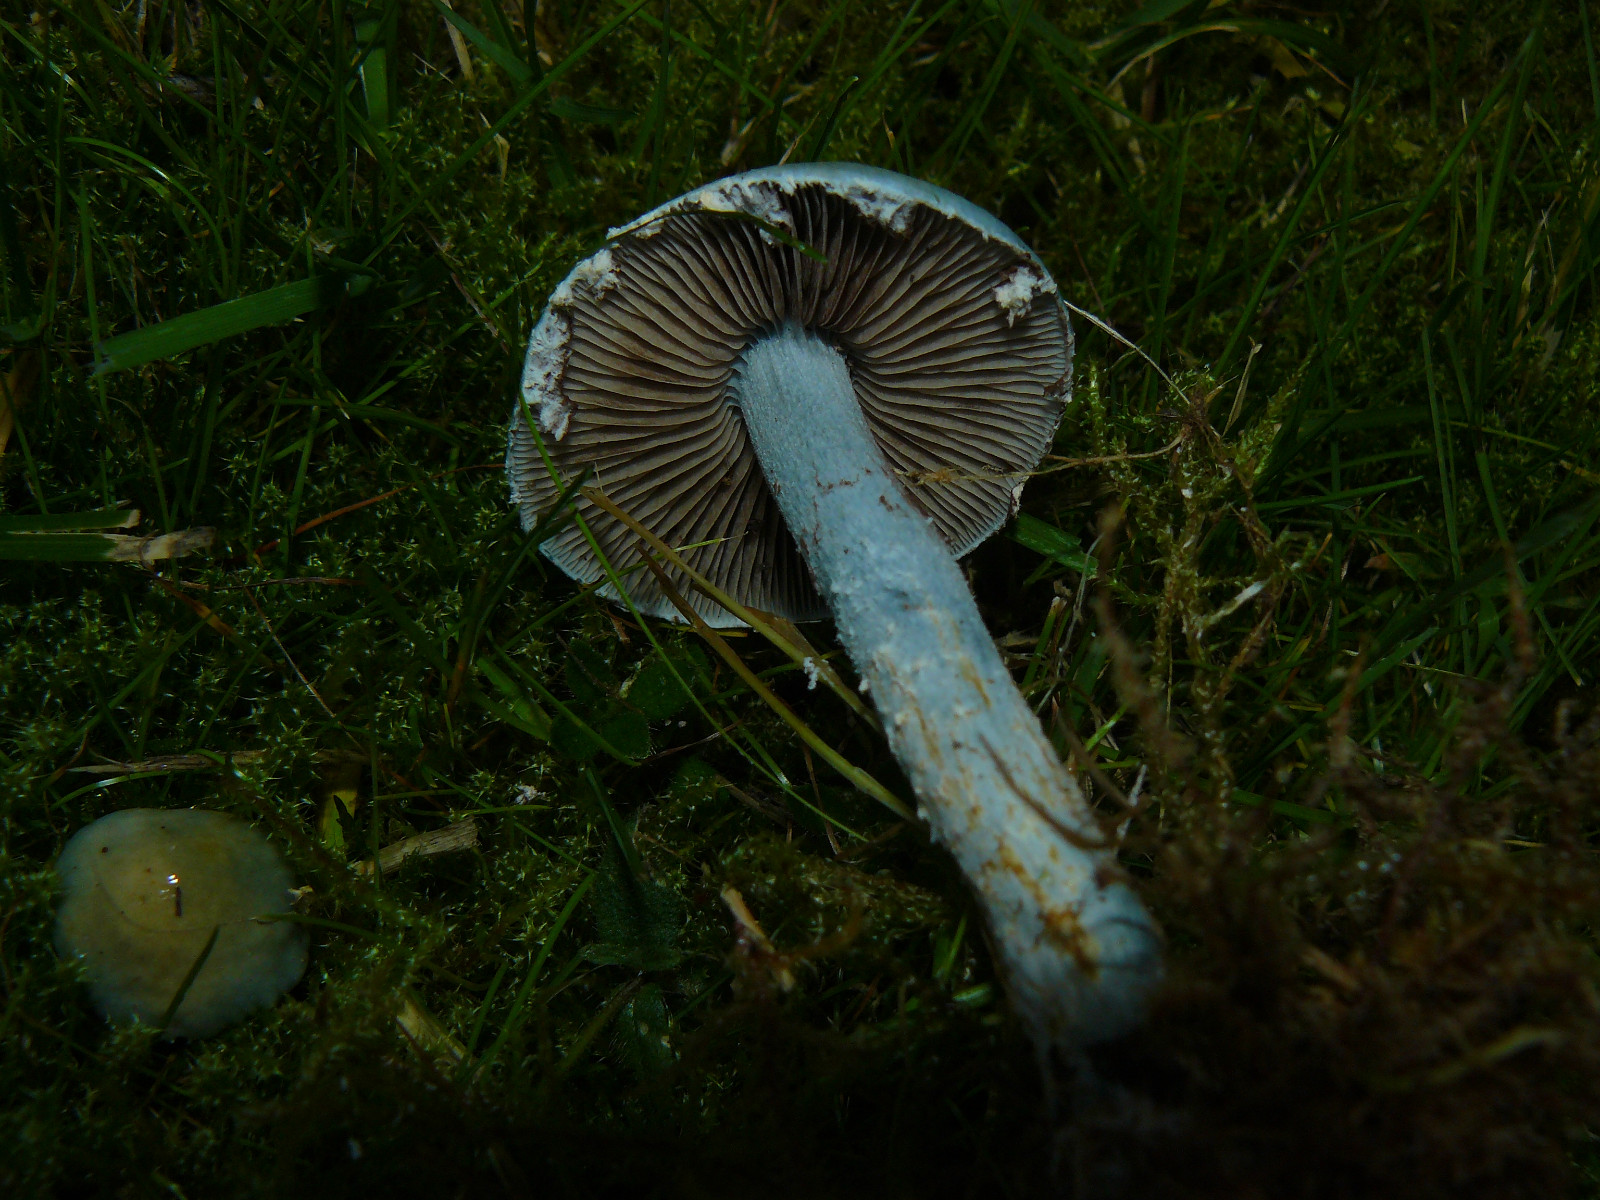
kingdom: Fungi
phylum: Basidiomycota
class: Agaricomycetes
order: Agaricales
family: Strophariaceae
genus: Stropharia
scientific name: Stropharia cyanea
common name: blågrøn bredblad
